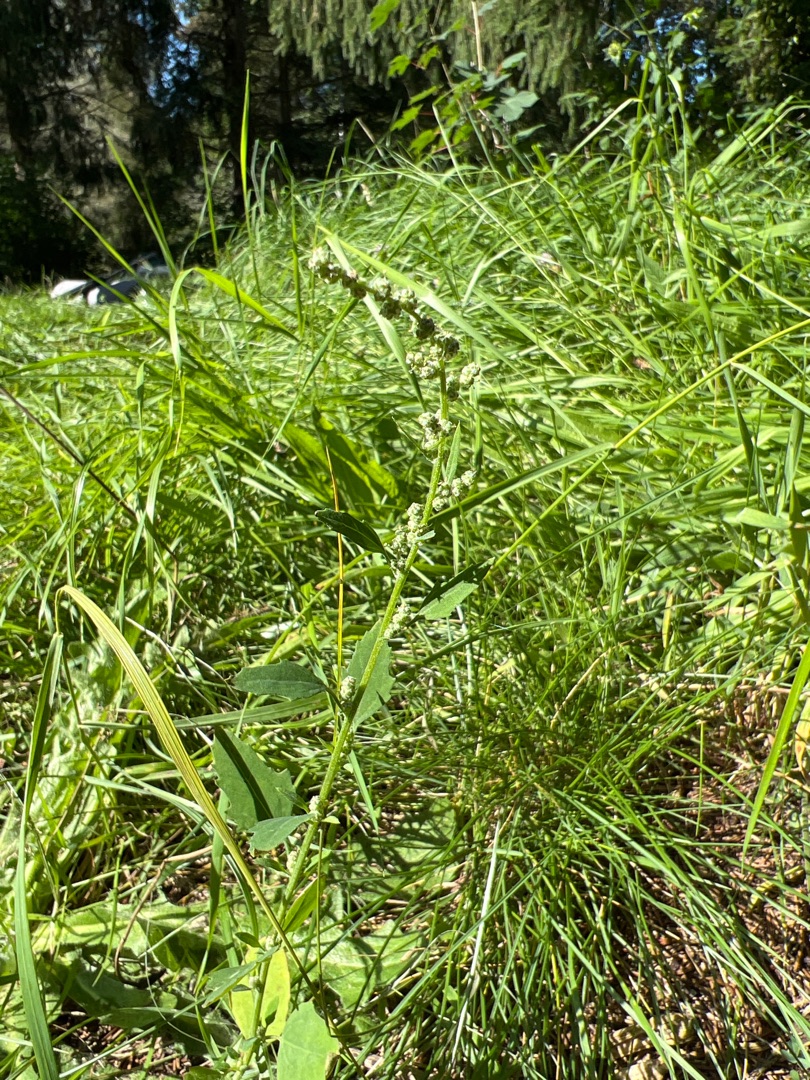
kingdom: Plantae
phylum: Tracheophyta
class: Magnoliopsida
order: Caryophyllales
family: Amaranthaceae
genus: Chenopodium
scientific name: Chenopodium album
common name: Hvidmelet gåsefod
